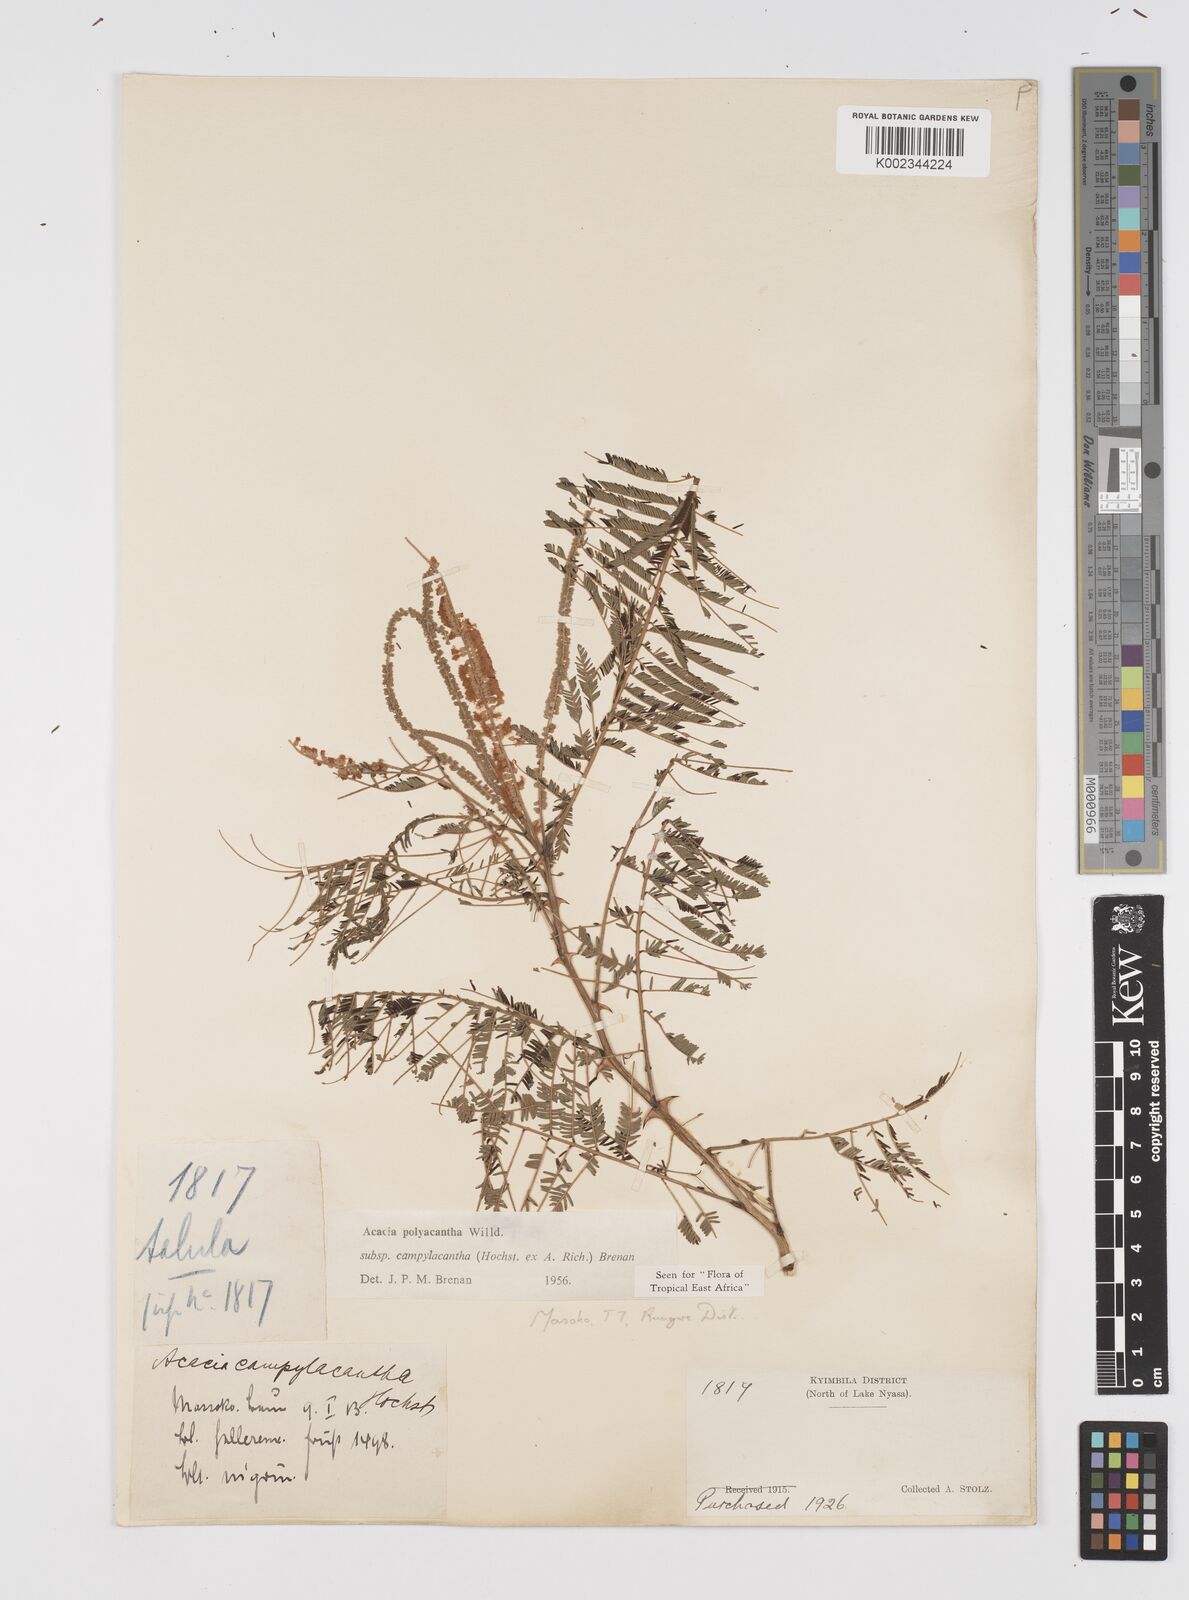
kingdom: Plantae
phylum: Tracheophyta
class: Magnoliopsida
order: Fabales
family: Fabaceae
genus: Senegalia
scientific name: Senegalia polyacantha
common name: Whitethorn
